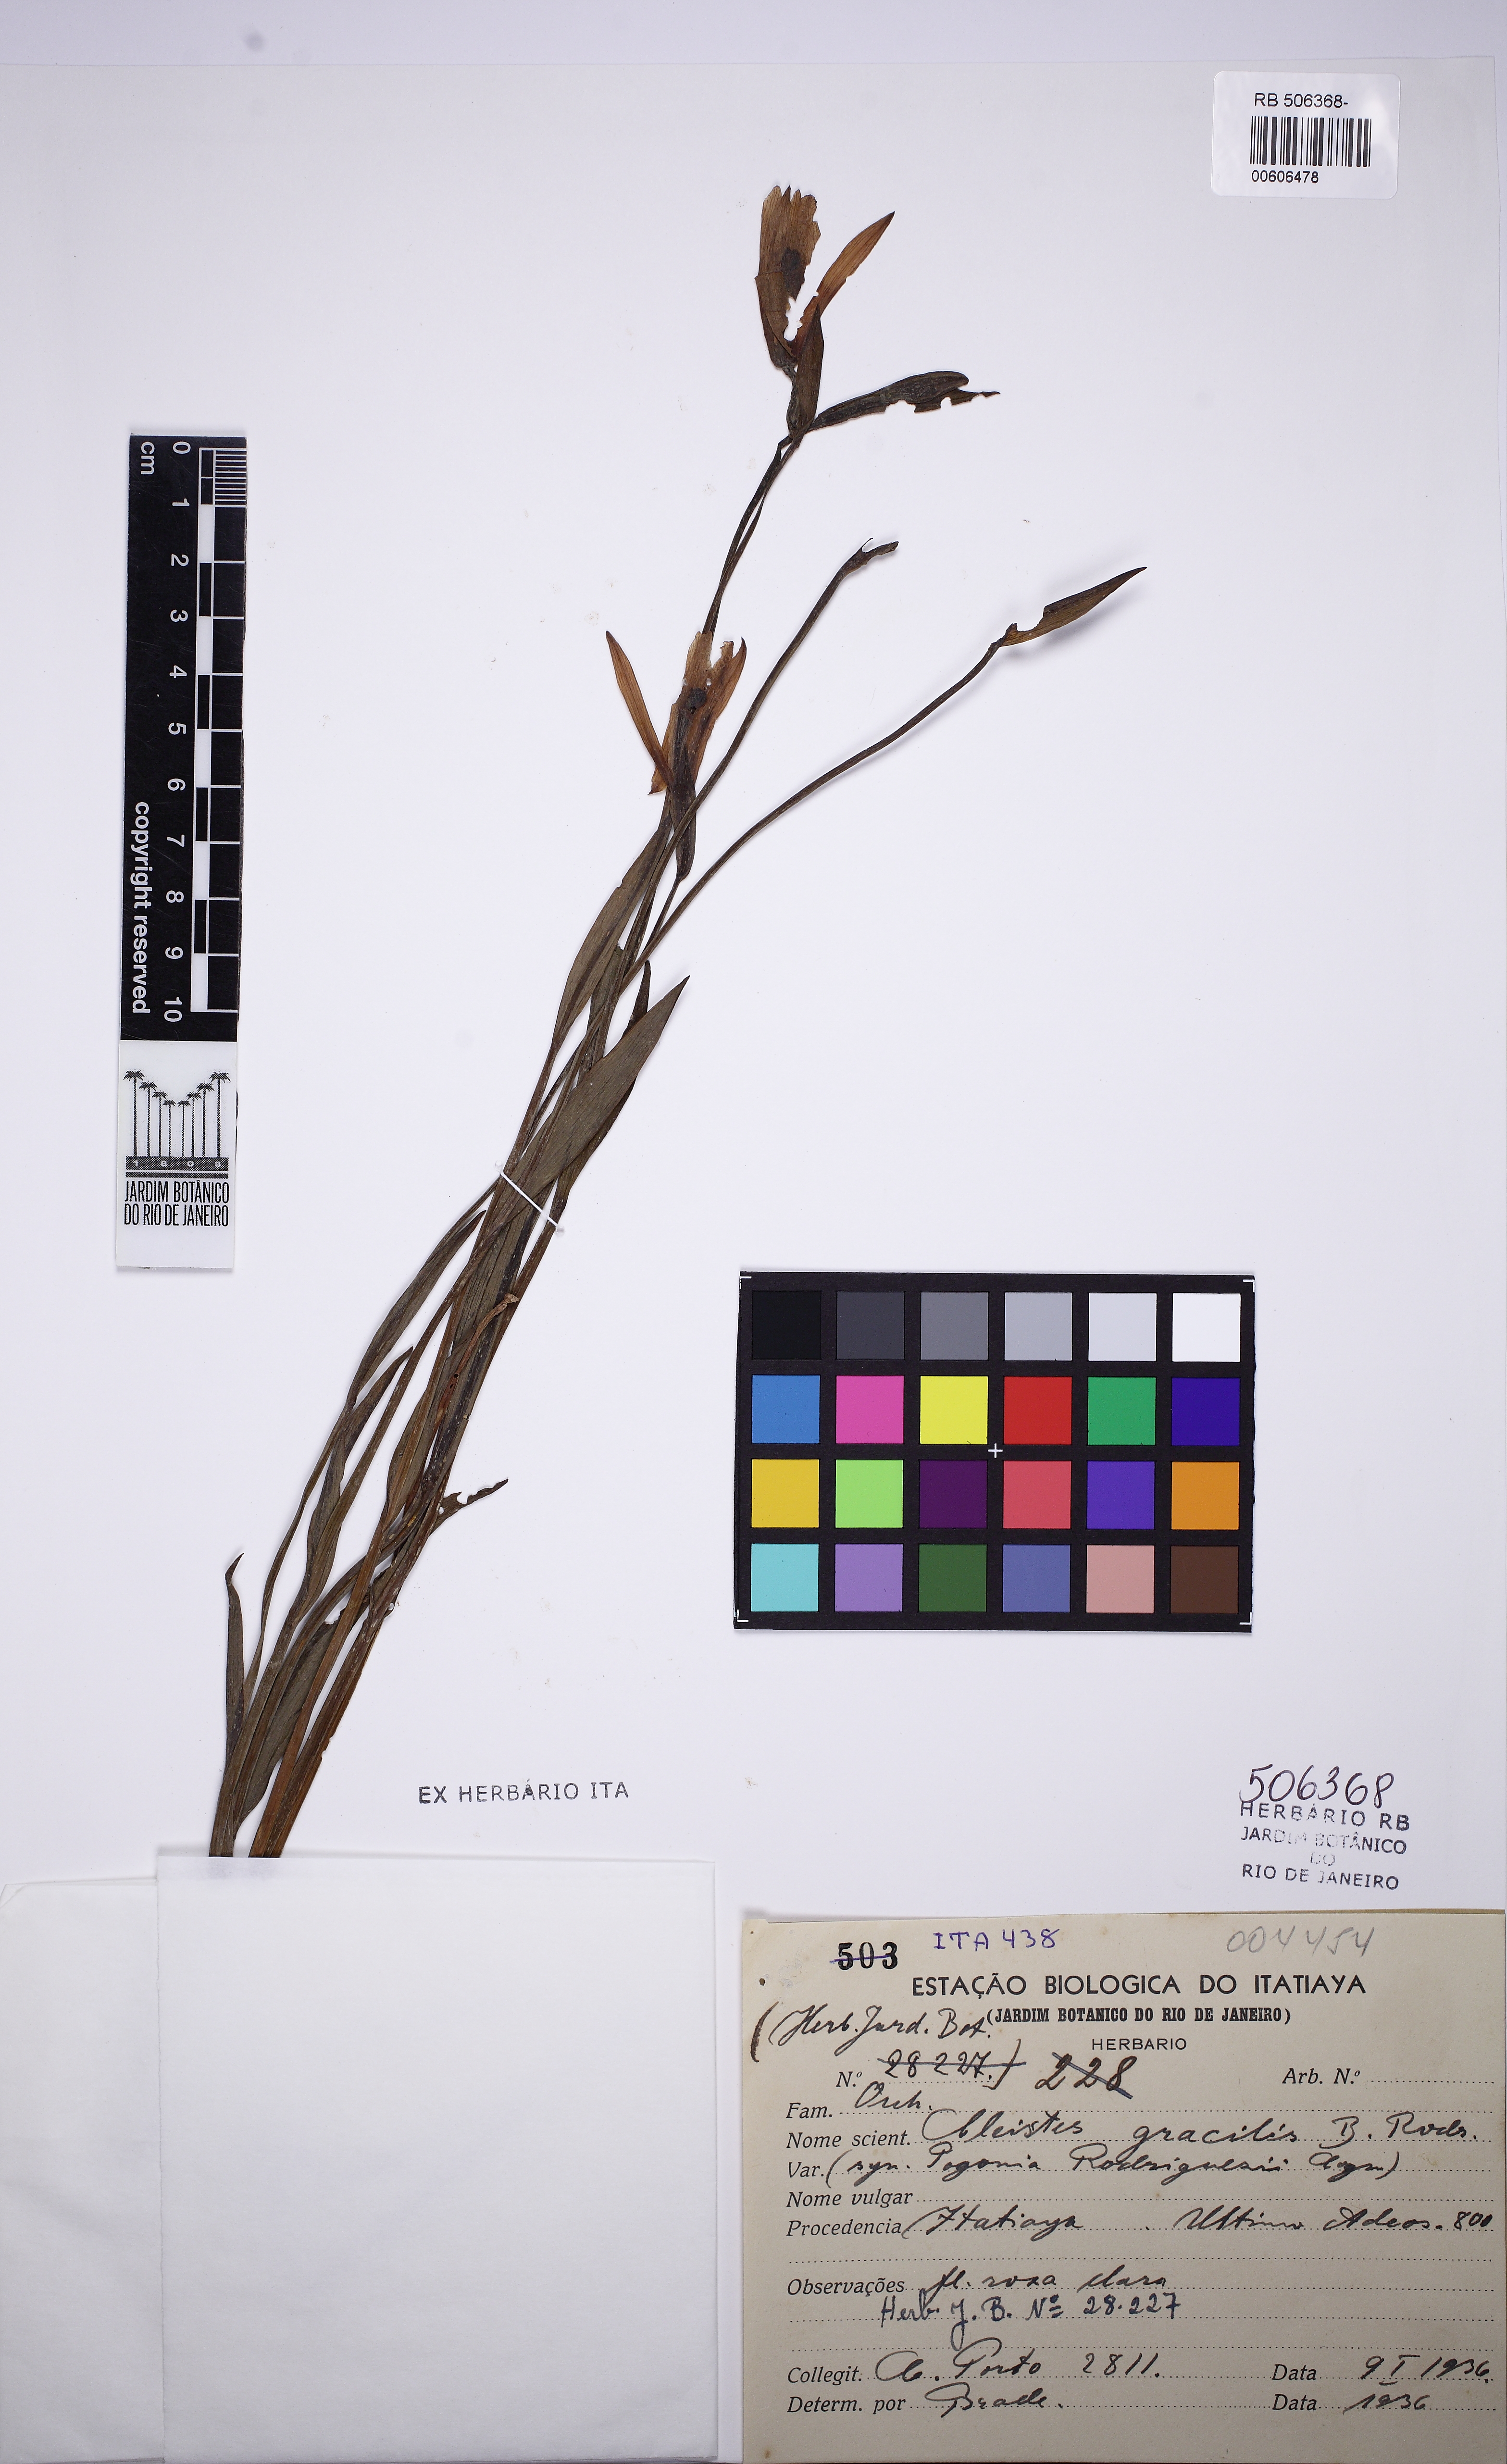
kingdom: Plantae
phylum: Tracheophyta
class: Liliopsida
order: Asparagales
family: Orchidaceae
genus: Cleistes
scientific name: Cleistes rodriguesii
